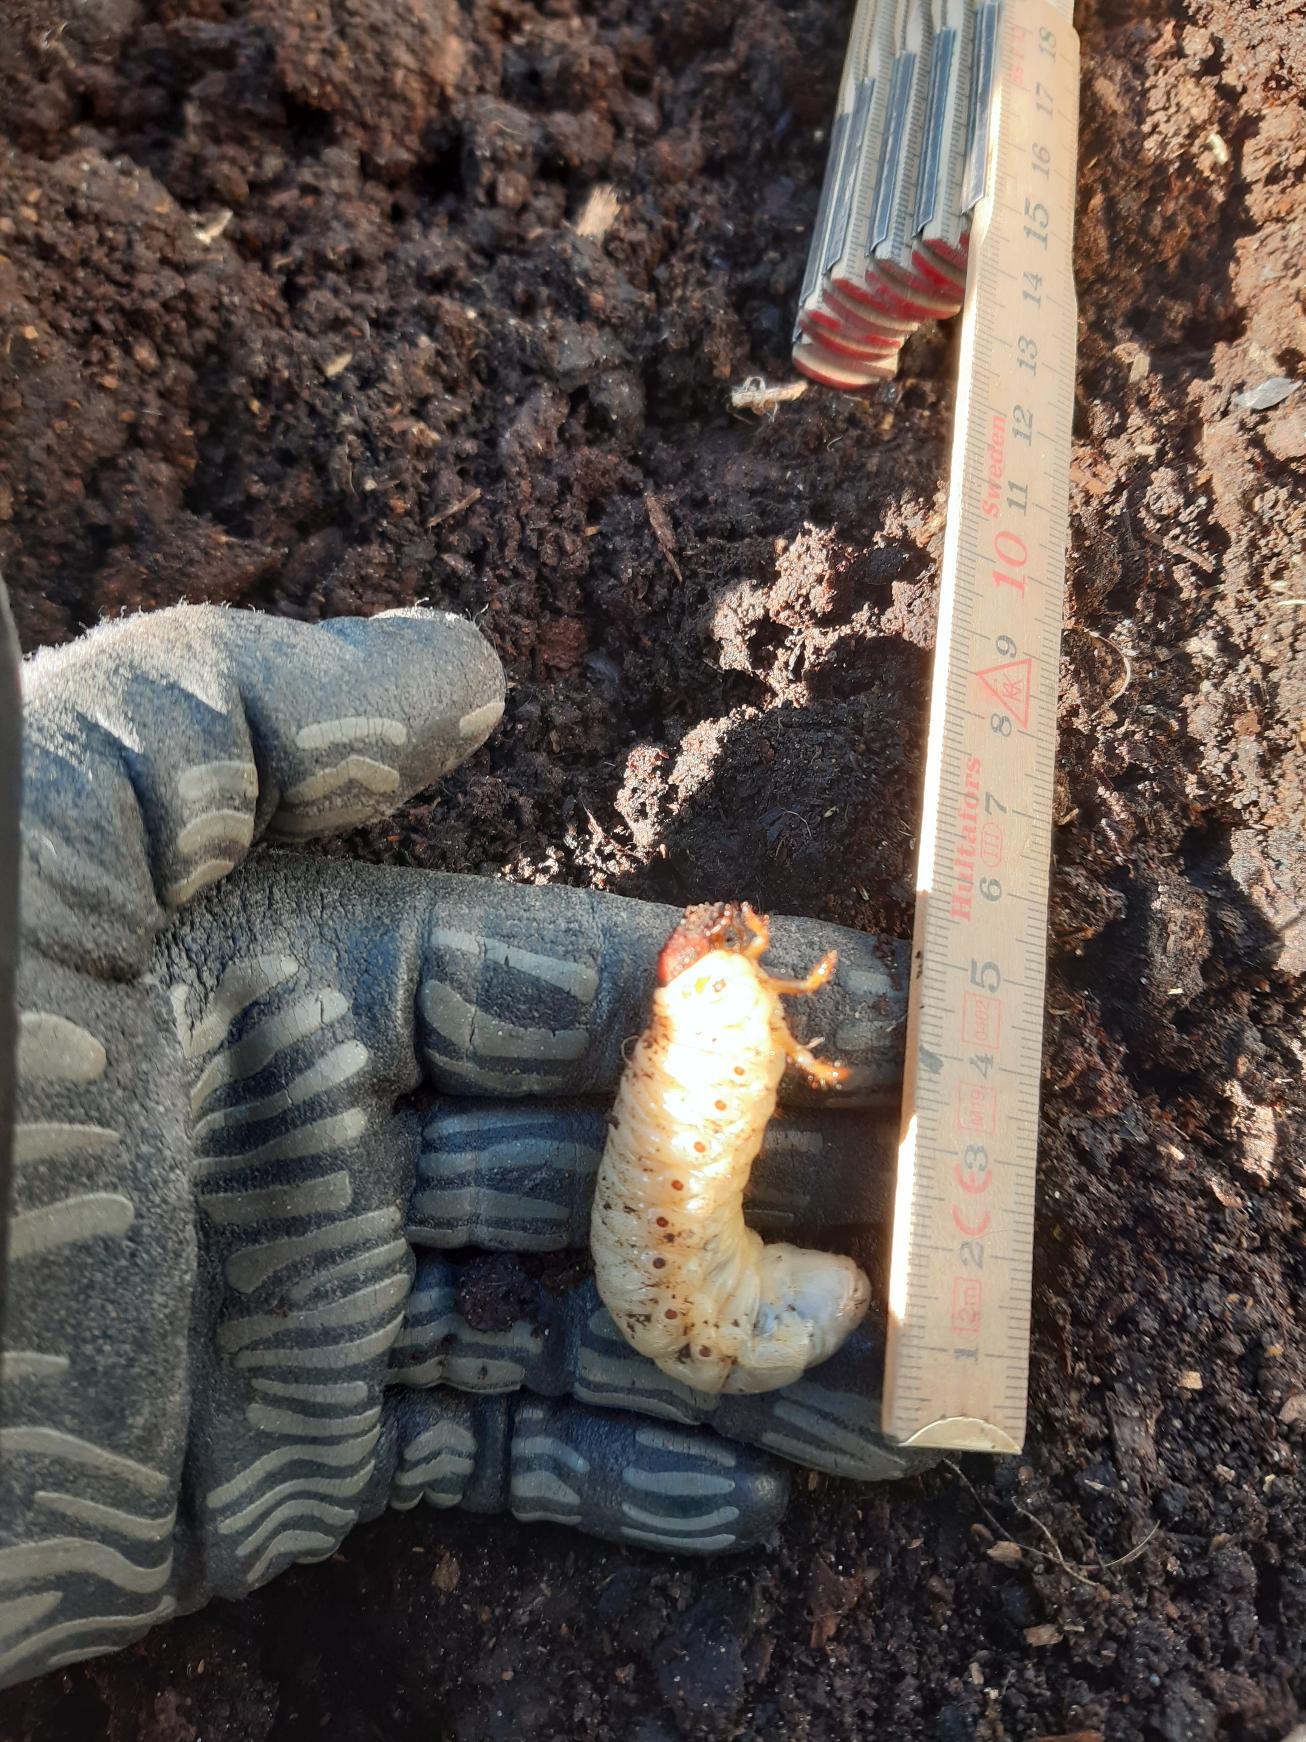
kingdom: Animalia
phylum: Arthropoda
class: Insecta
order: Coleoptera
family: Scarabaeidae
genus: Oryctes
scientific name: Oryctes nasicornis
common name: Næsehornsbille
